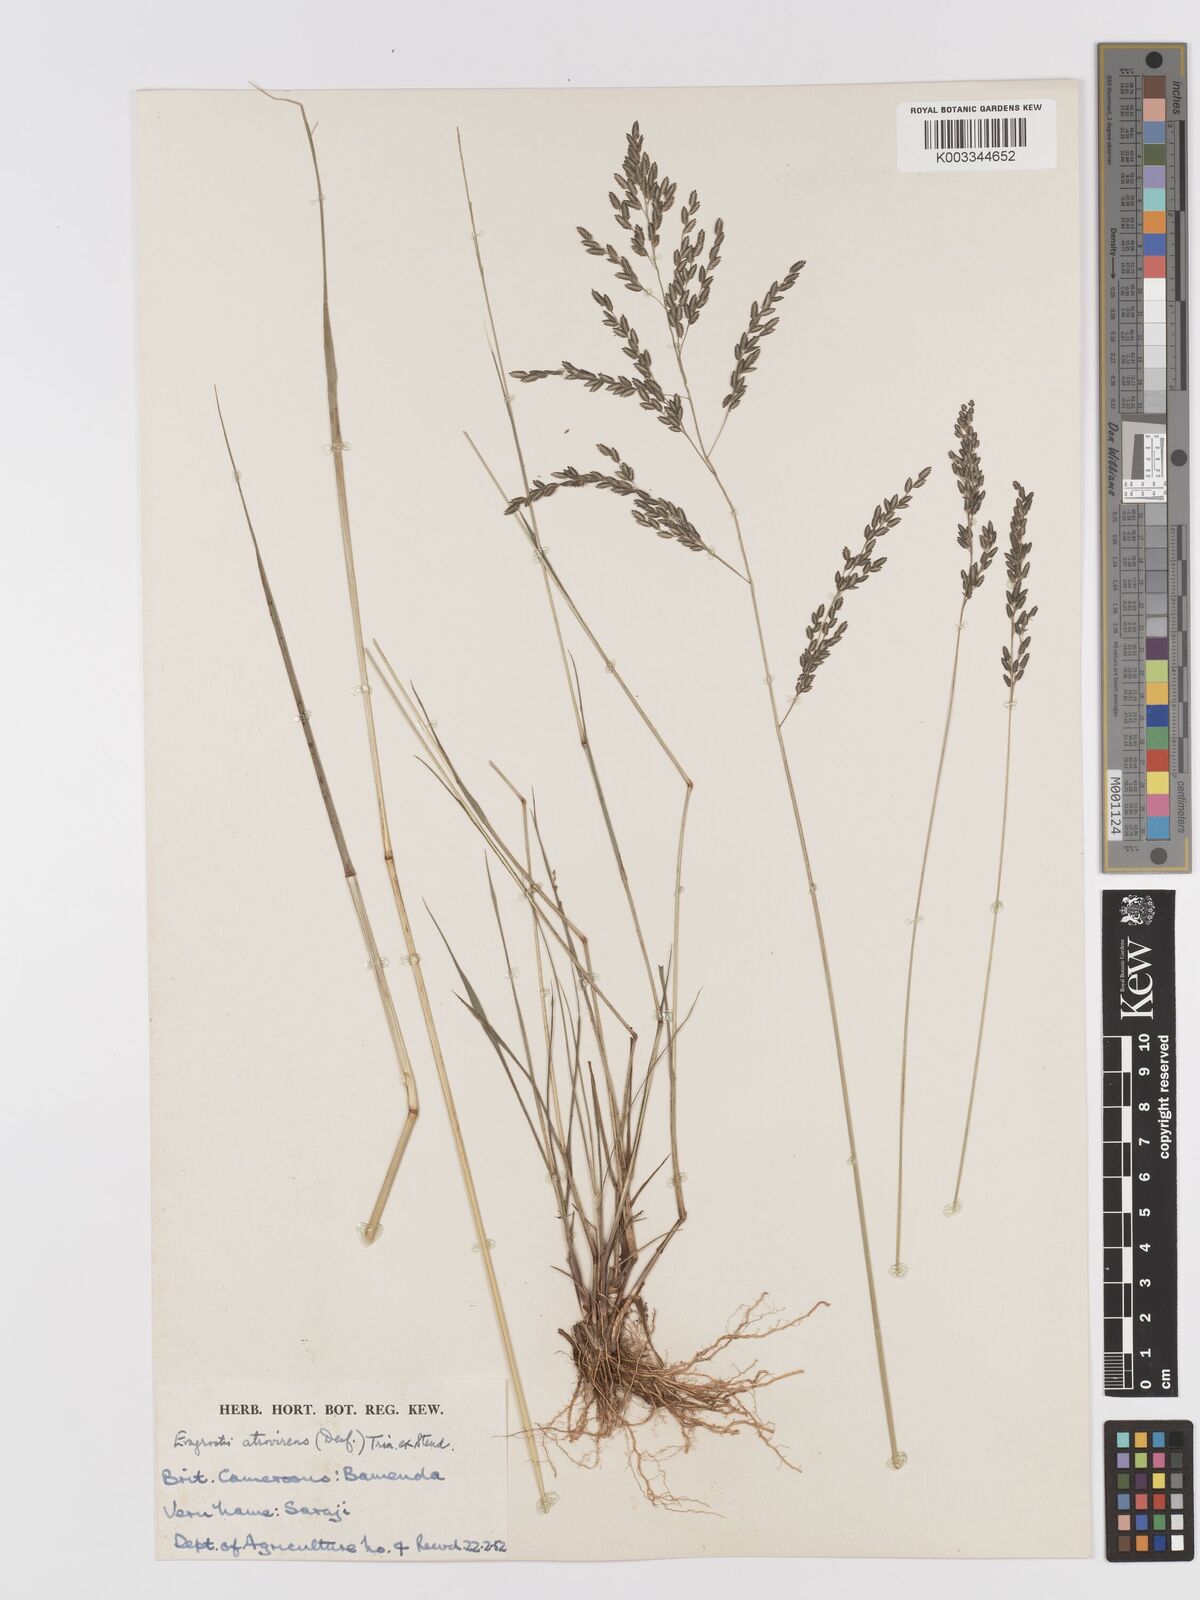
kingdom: Plantae
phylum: Tracheophyta
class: Liliopsida
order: Poales
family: Poaceae
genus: Eragrostis
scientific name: Eragrostis atrovirens
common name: Thalia lovegrass
